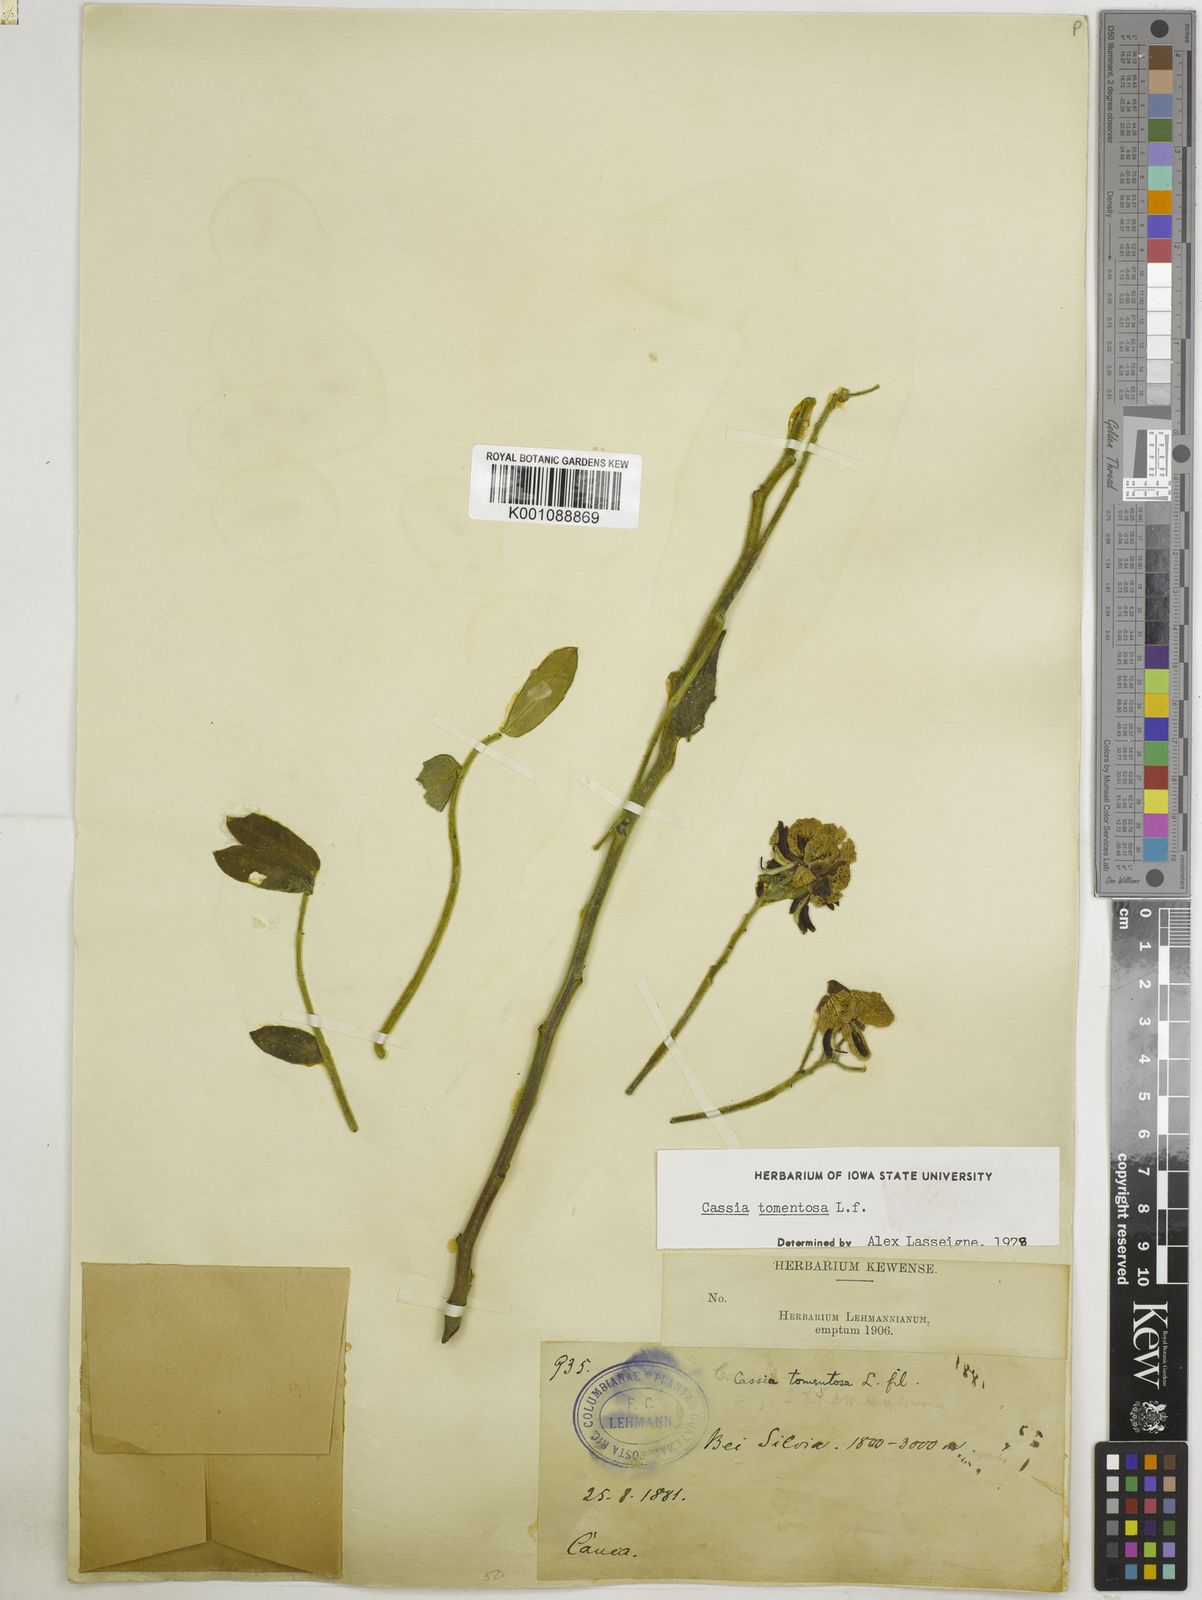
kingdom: Plantae
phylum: Tracheophyta
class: Magnoliopsida
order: Fabales
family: Fabaceae
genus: Senna
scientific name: Senna multiglandulosa
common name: Glandular senna
